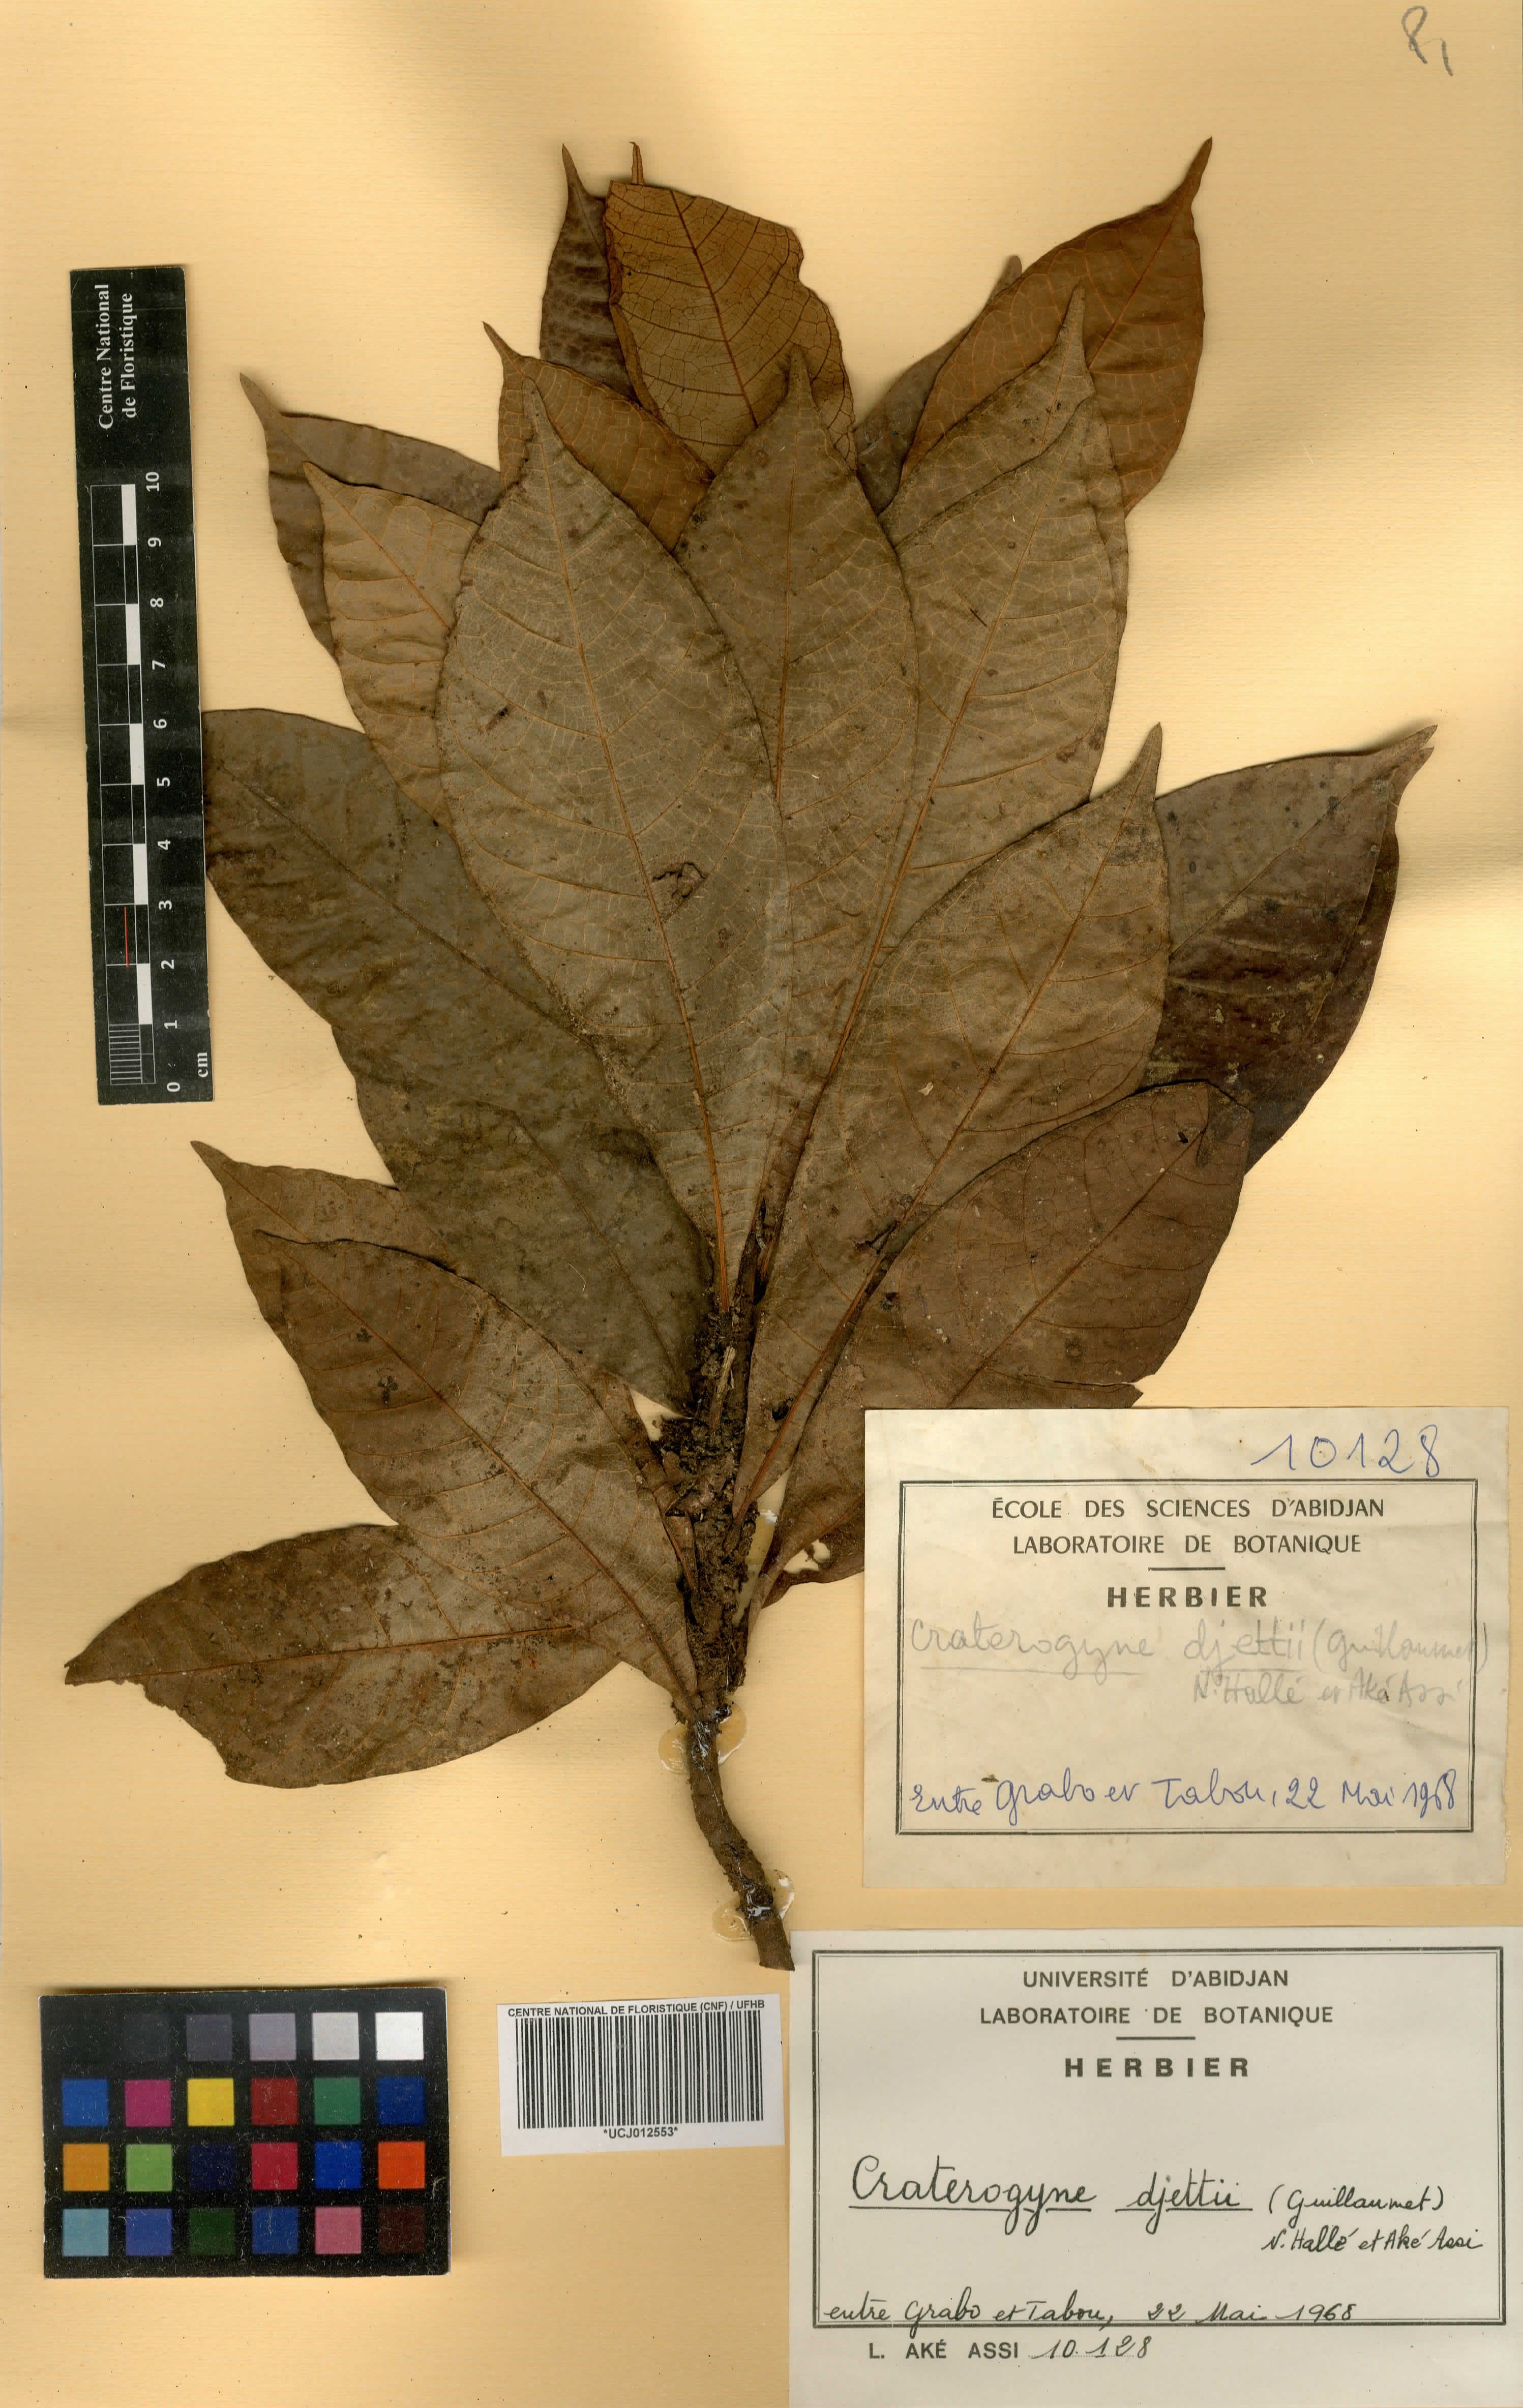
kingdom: Plantae
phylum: Tracheophyta
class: Magnoliopsida
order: Rosales
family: Moraceae
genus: Dorstenia
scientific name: Dorstenia djettii
